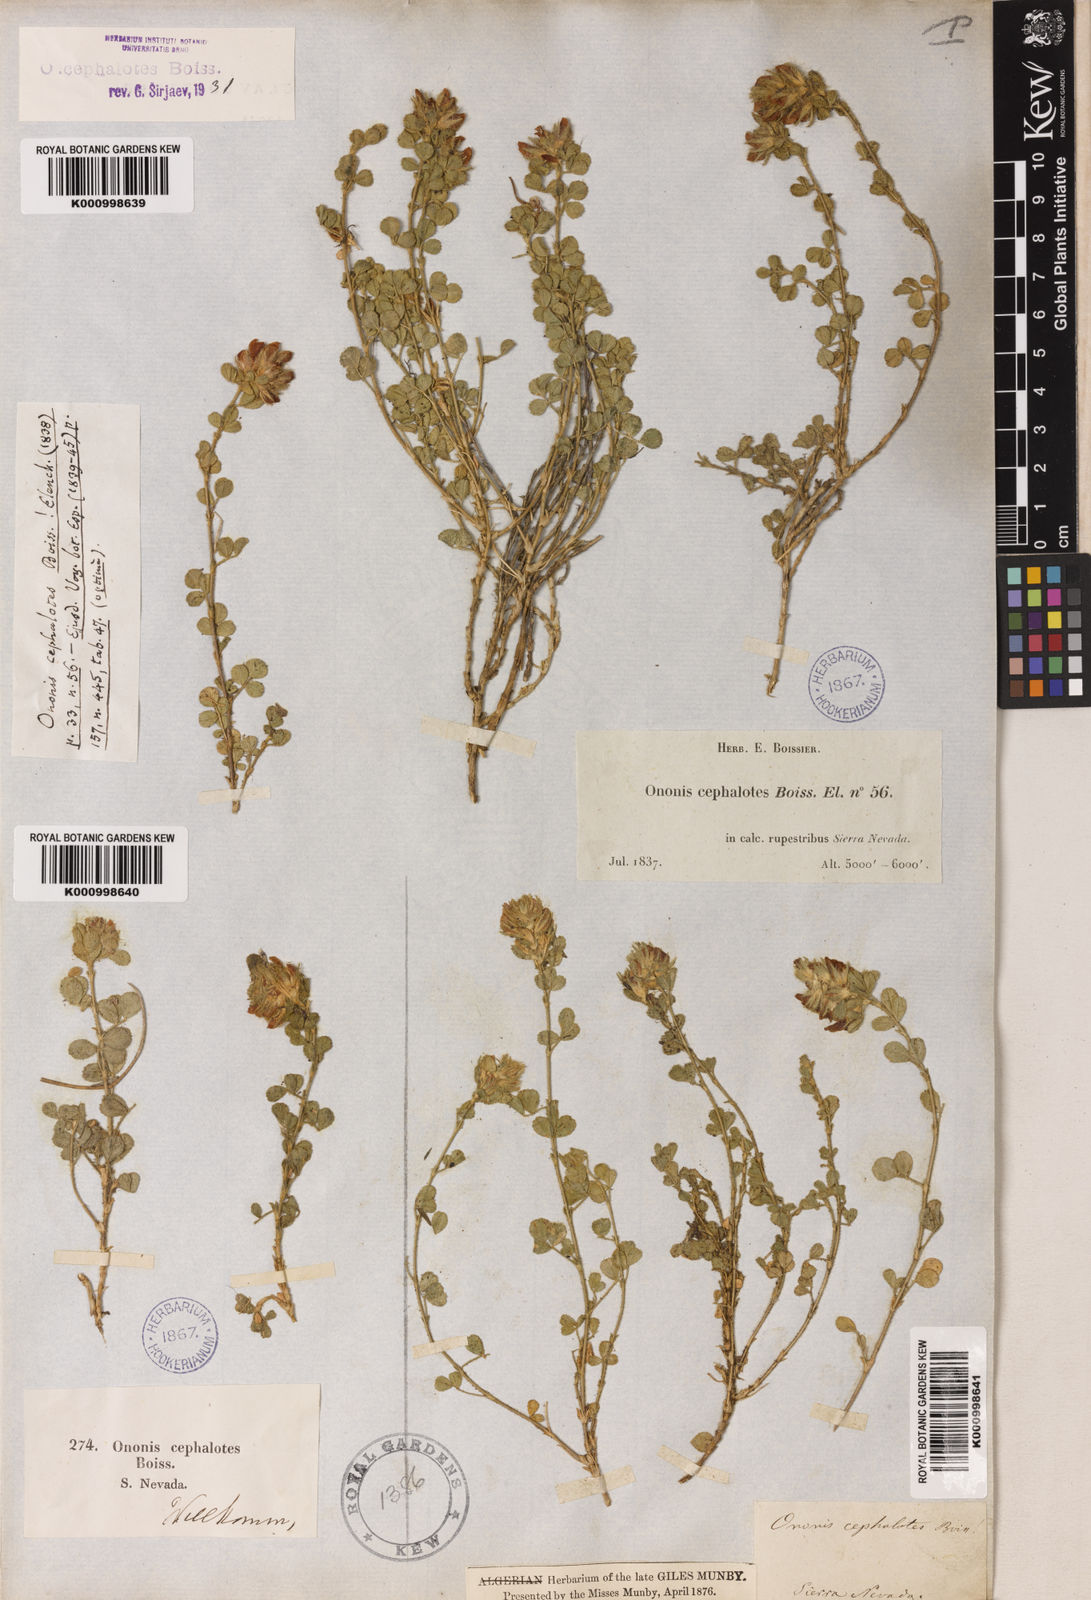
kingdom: Plantae
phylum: Tracheophyta
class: Magnoliopsida
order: Fabales
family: Fabaceae
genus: Ononis
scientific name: Ononis cephalotes
